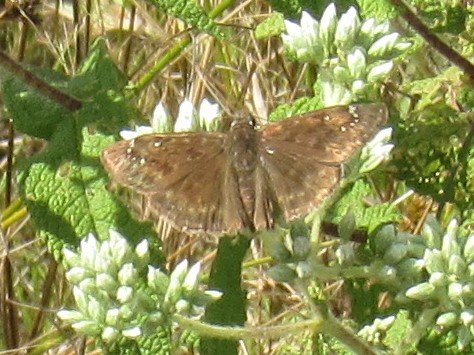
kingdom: Animalia
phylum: Arthropoda
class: Insecta
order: Lepidoptera
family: Hesperiidae
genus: Gesta
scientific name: Gesta
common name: Horace's Duskywing
